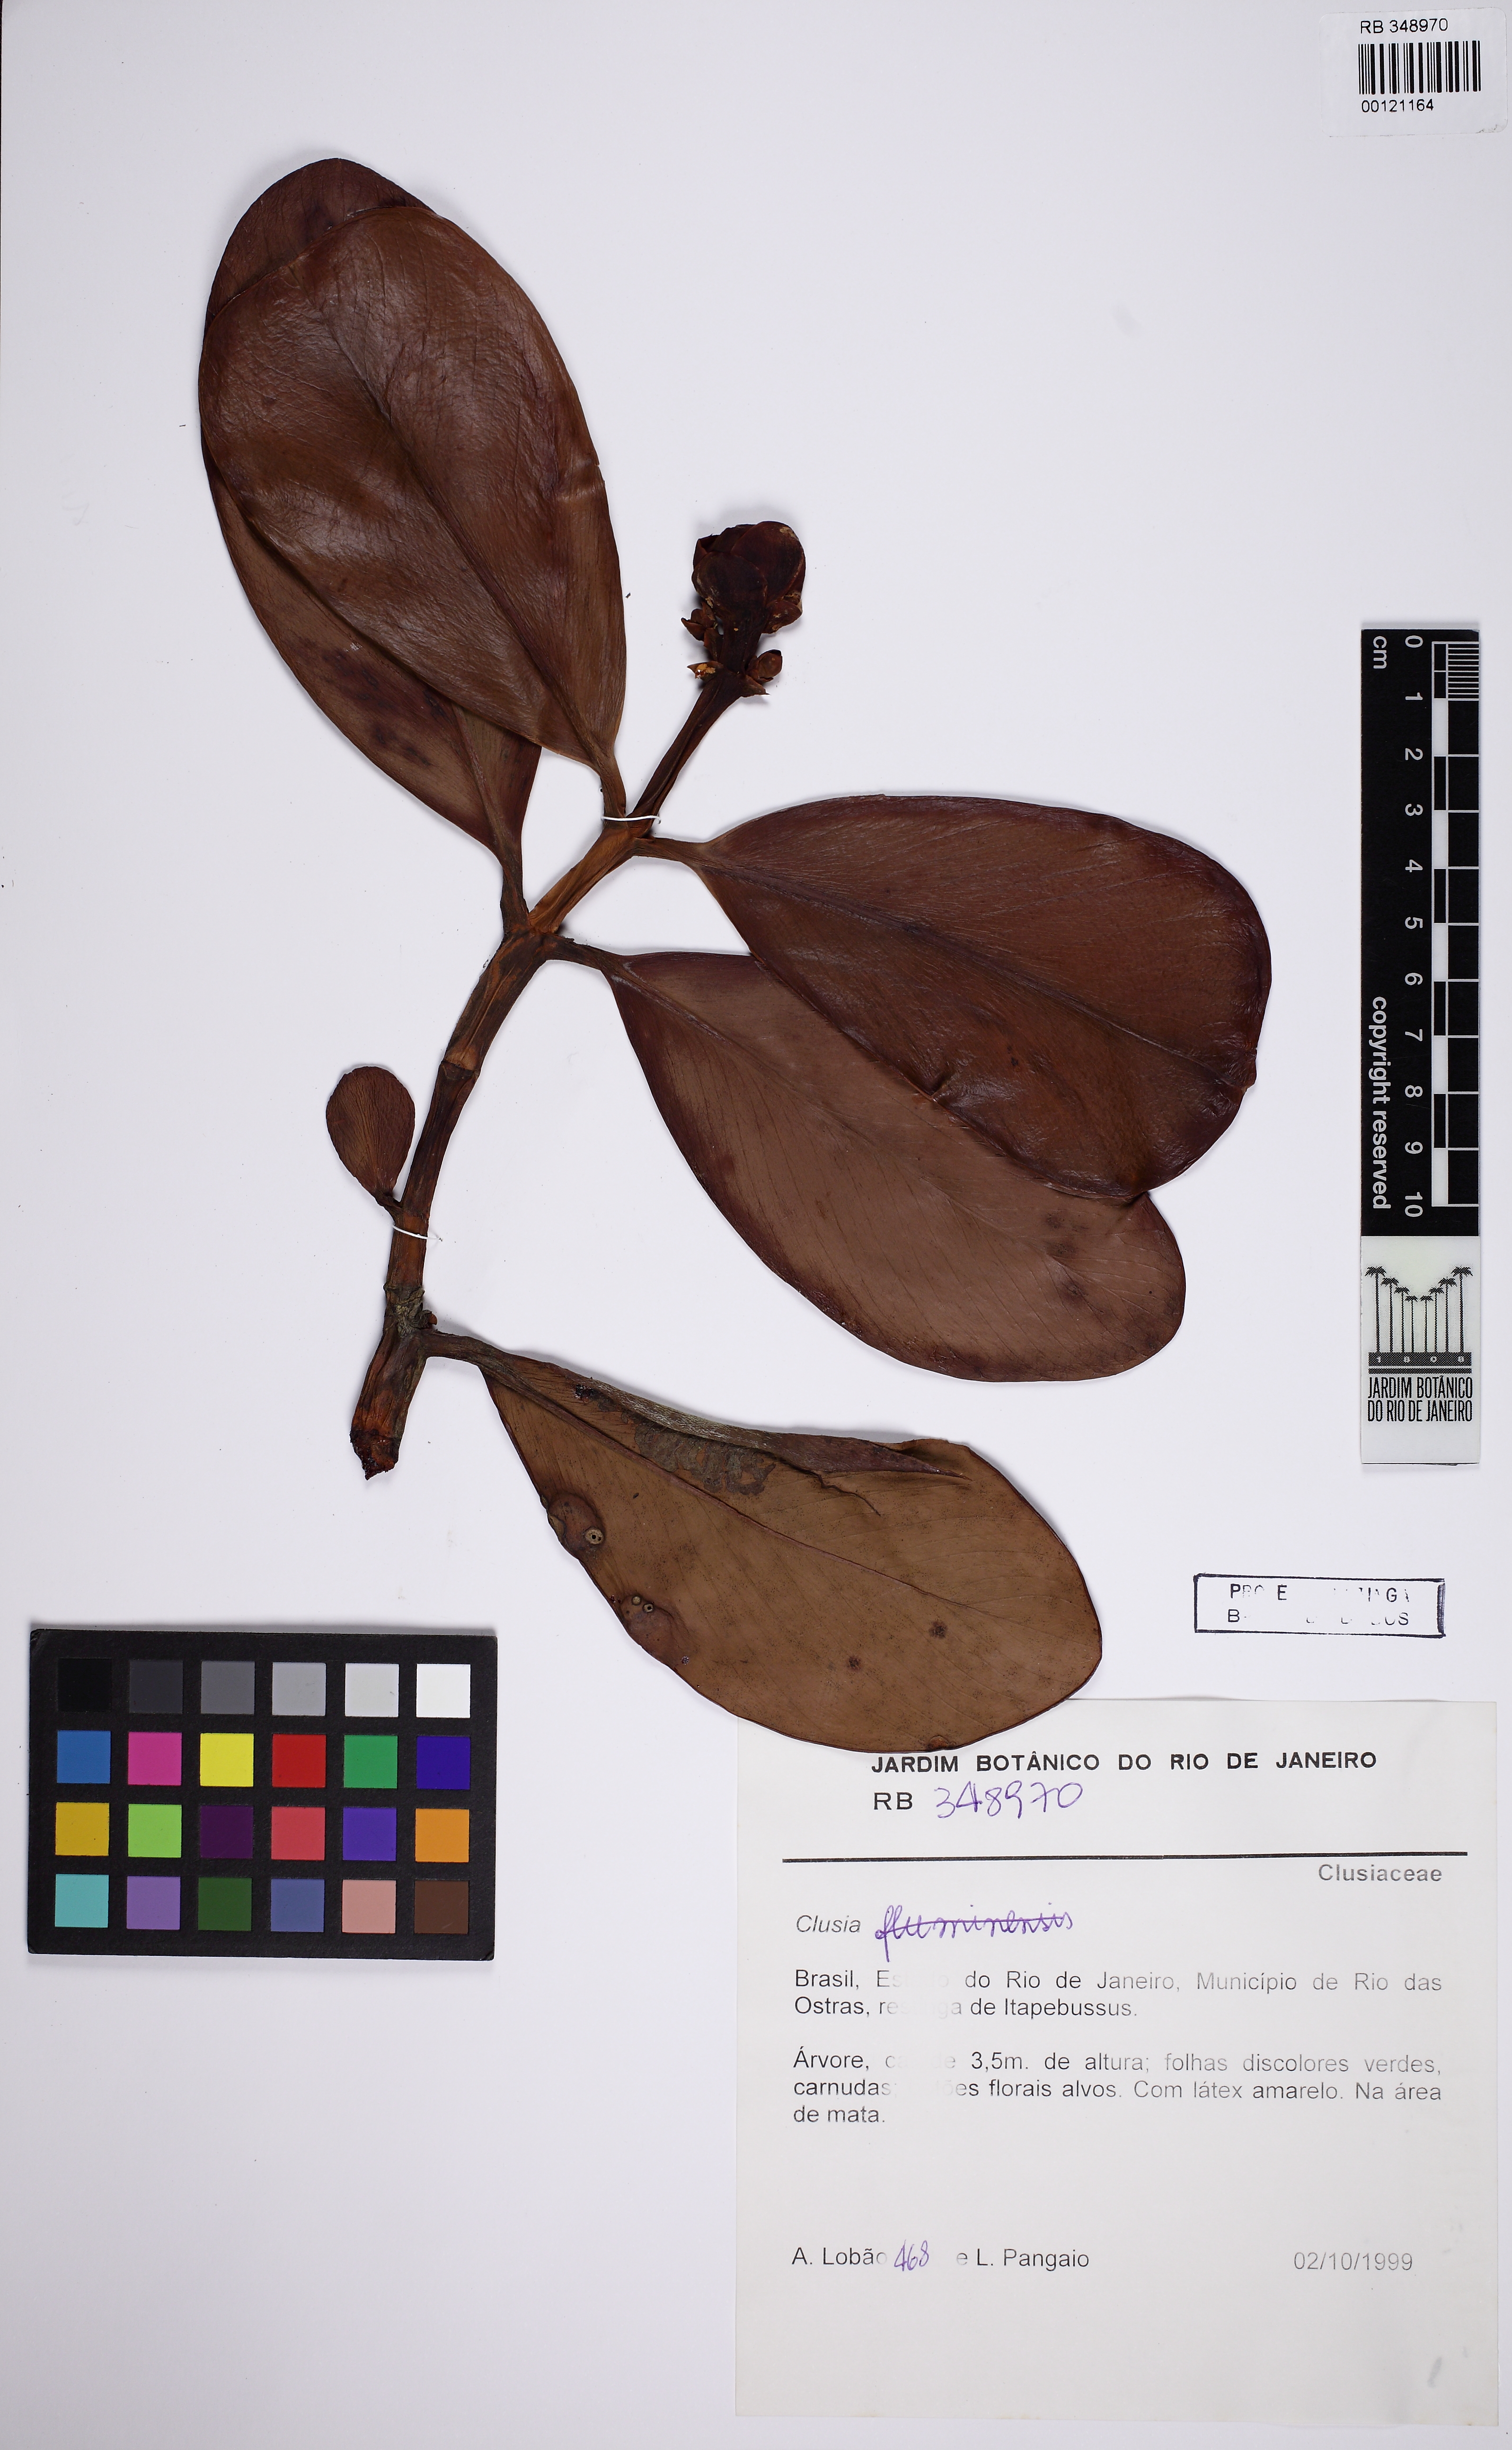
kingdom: Plantae
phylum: Tracheophyta
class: Magnoliopsida
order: Malpighiales
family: Clusiaceae
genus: Clusia
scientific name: Clusia
